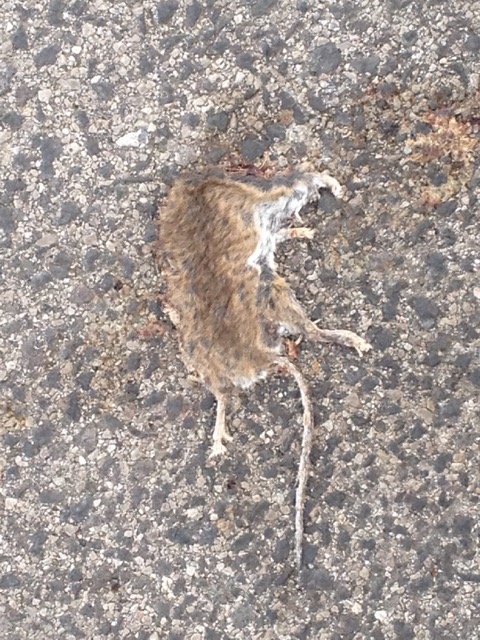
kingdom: Animalia
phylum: Chordata
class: Mammalia
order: Rodentia
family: Muridae
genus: Apodemus
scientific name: Apodemus
